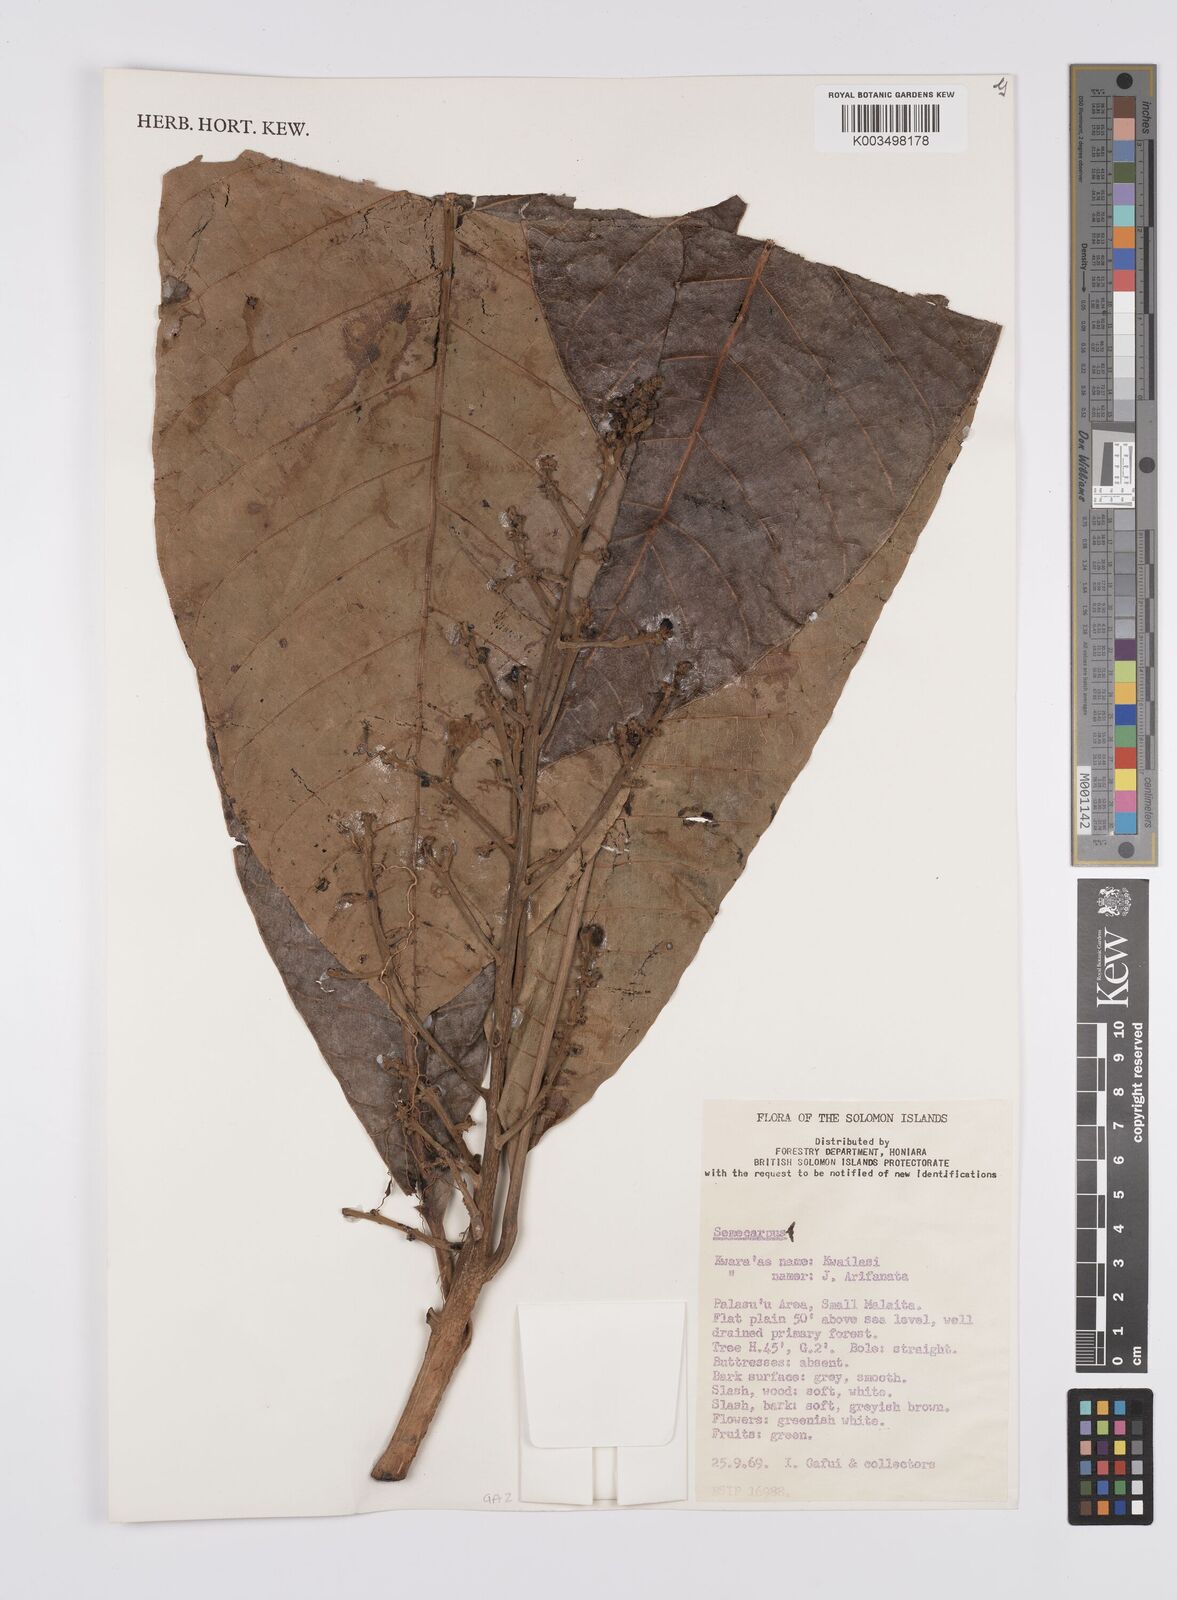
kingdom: Plantae
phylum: Tracheophyta
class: Magnoliopsida
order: Sapindales
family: Anacardiaceae
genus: Semecarpus
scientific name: Semecarpus
